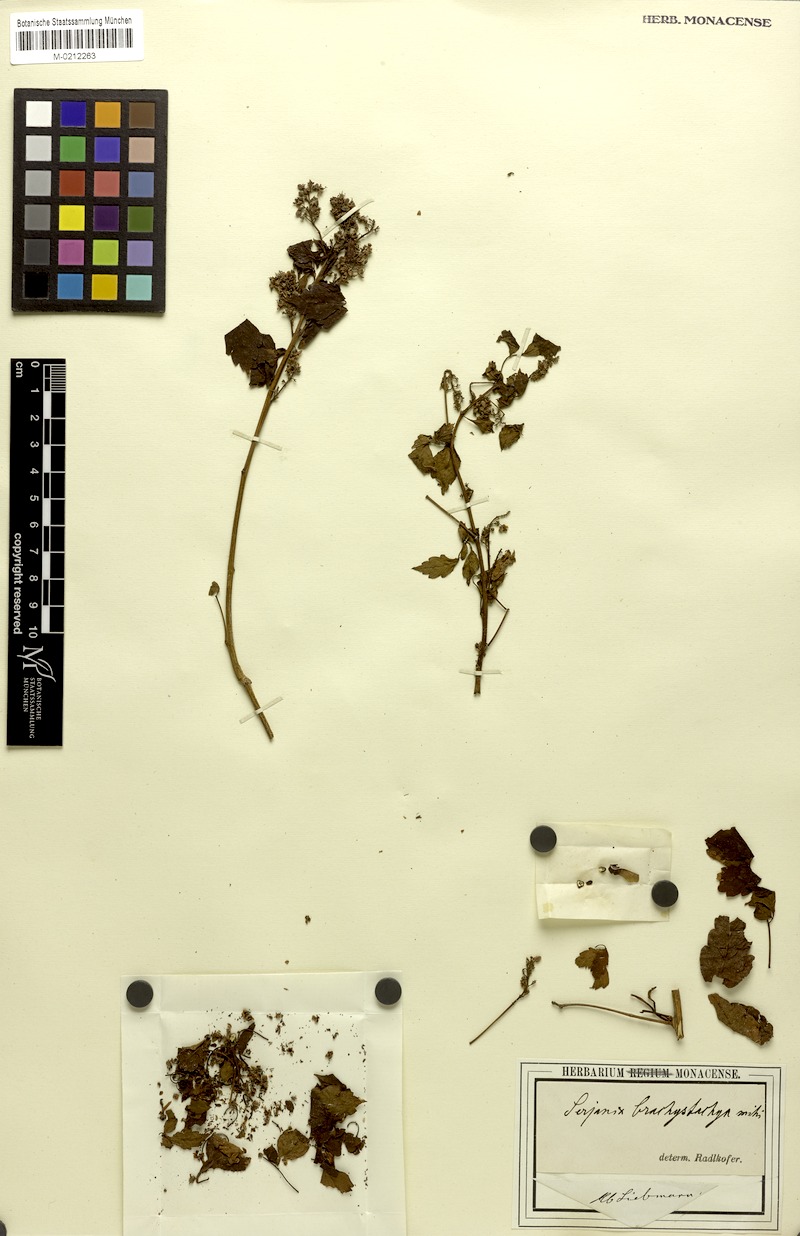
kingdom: Plantae
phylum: Tracheophyta
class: Magnoliopsida
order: Sapindales
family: Sapindaceae
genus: Serjania
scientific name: Serjania brachystachya
